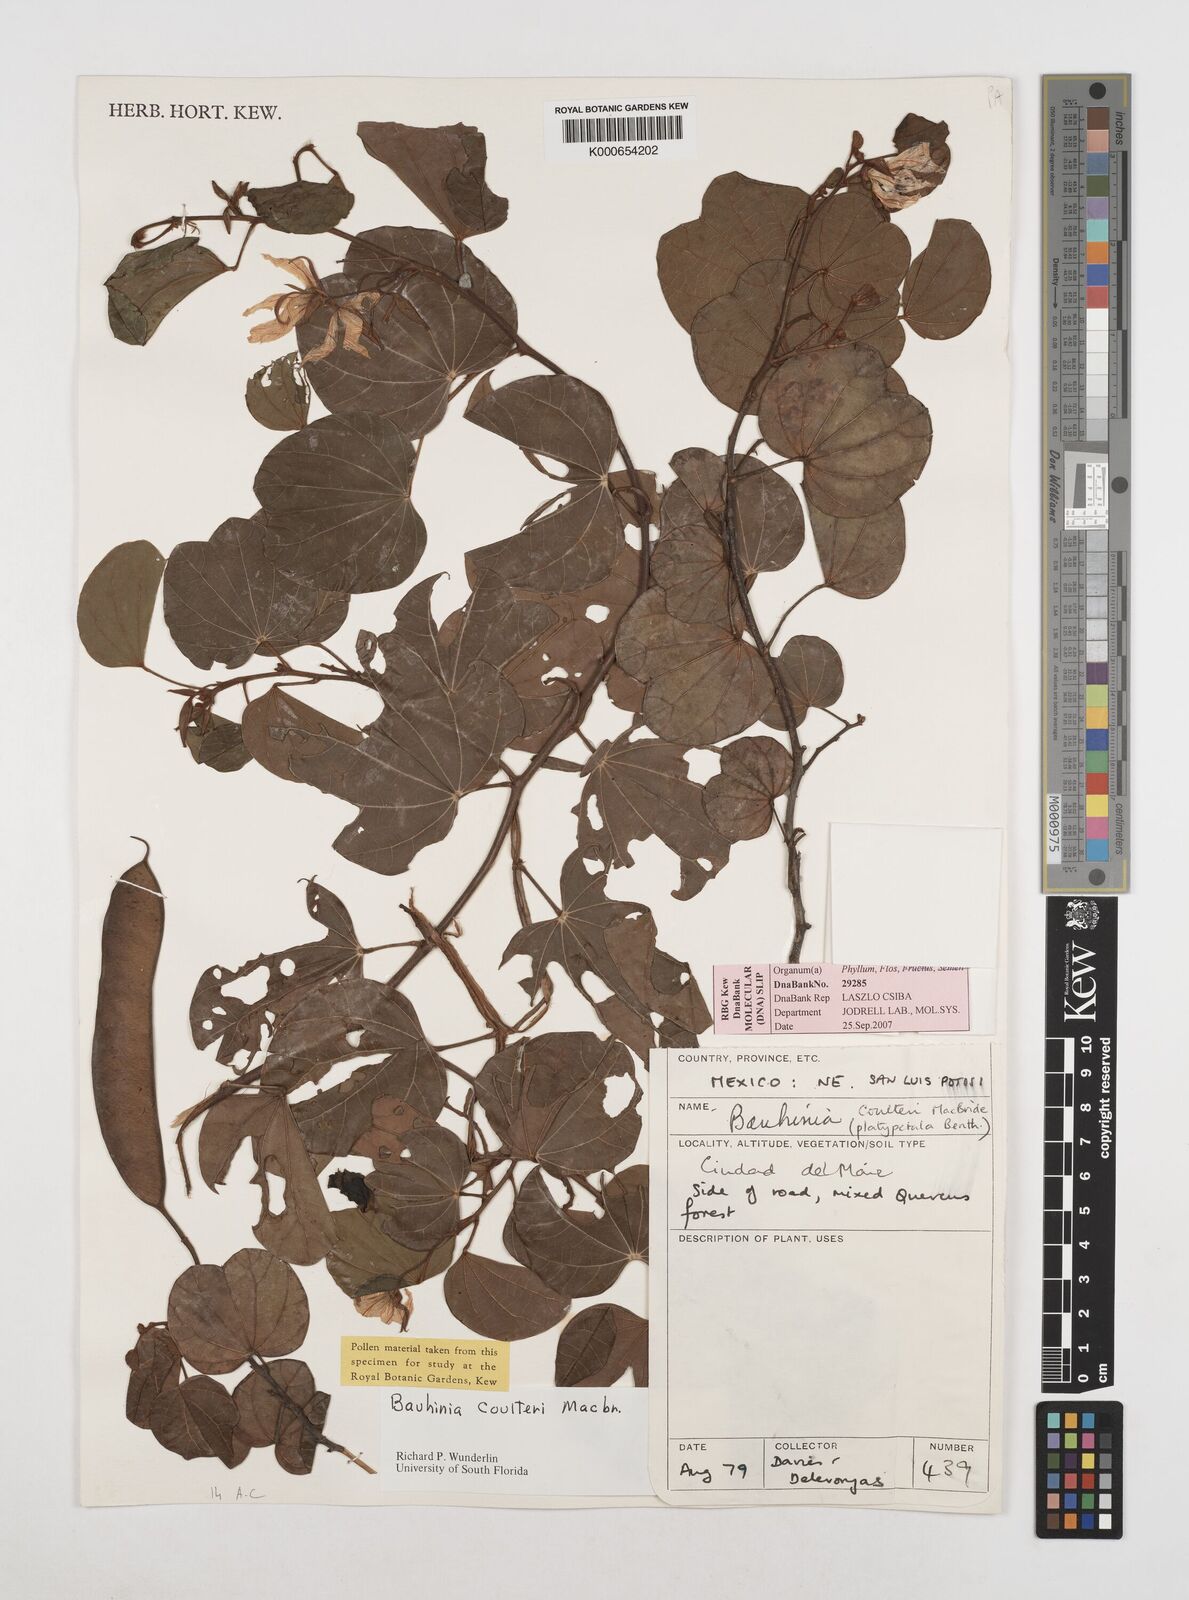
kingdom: Plantae
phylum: Tracheophyta
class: Magnoliopsida
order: Fabales
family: Fabaceae
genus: Bauhinia
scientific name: Bauhinia coulteri
